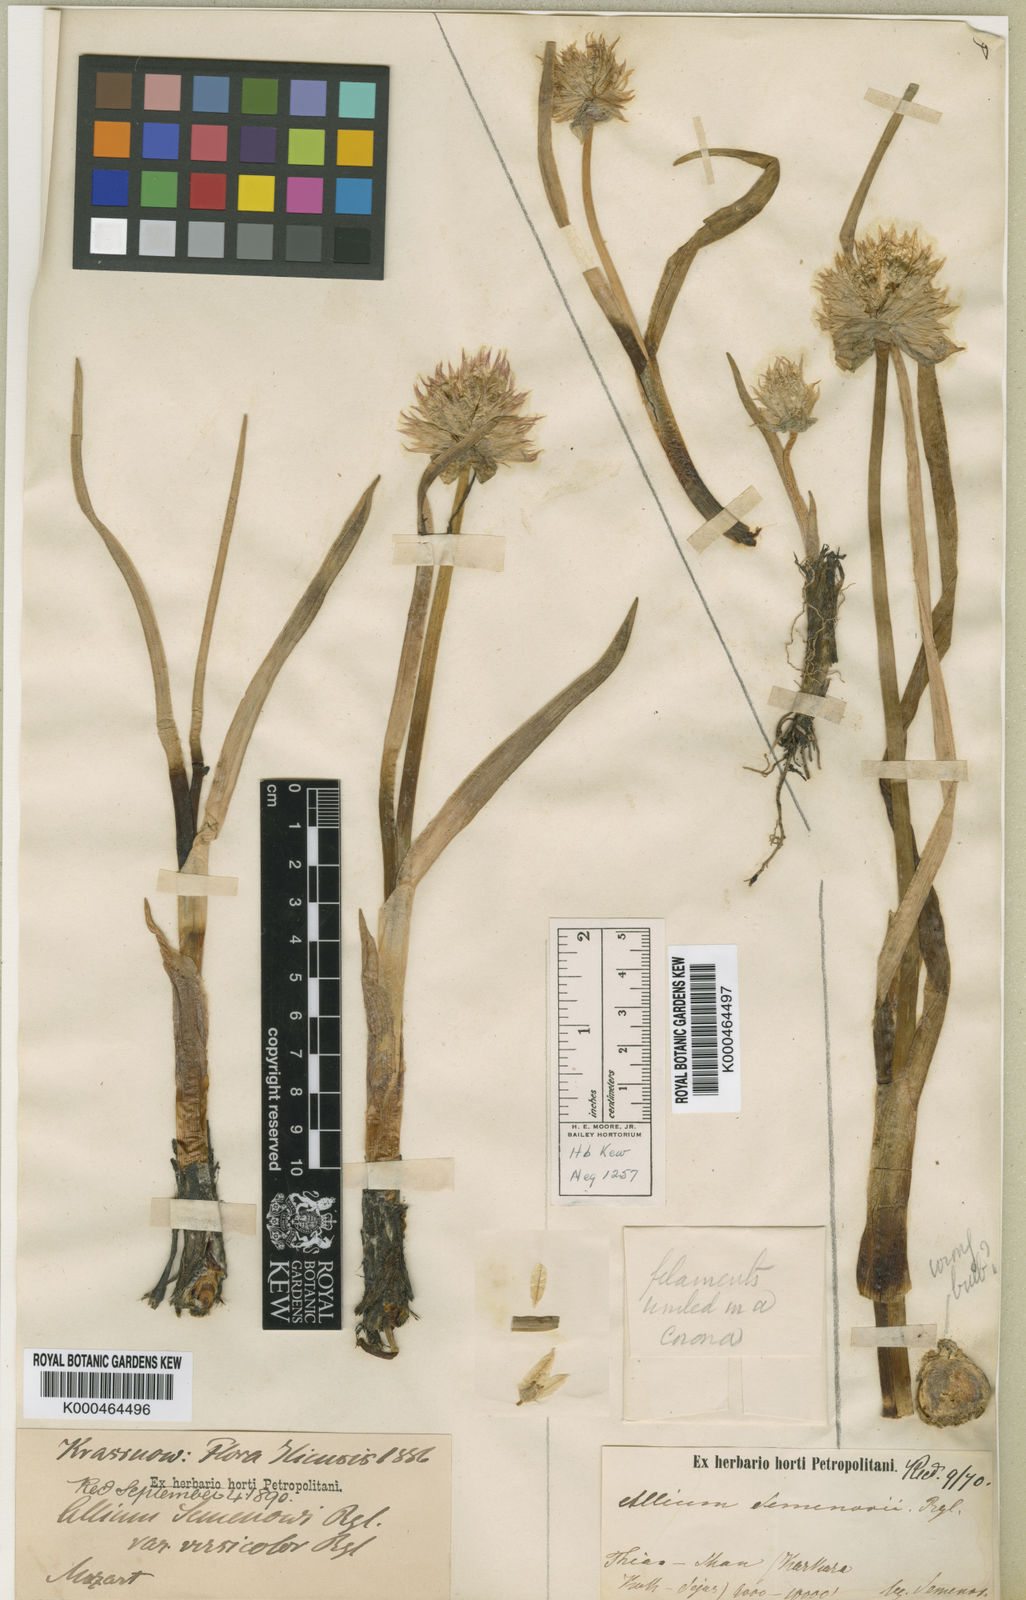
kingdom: Plantae
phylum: Tracheophyta
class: Liliopsida
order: Asparagales
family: Amaryllidaceae
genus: Allium
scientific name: Allium semenovii
